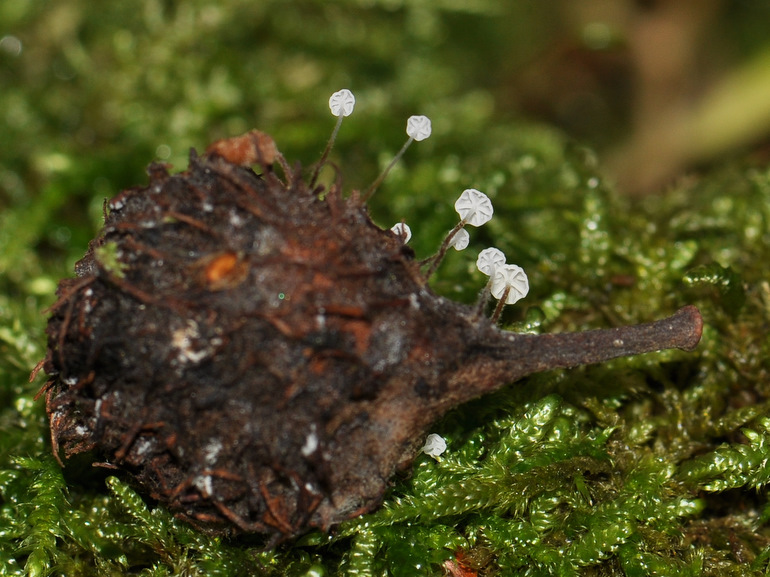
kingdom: Fungi
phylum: Basidiomycota
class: Agaricomycetes
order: Agaricales
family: Physalacriaceae
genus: Rhizomarasmius
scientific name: Rhizomarasmius setosus
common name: bøgeblads-bruskhat
